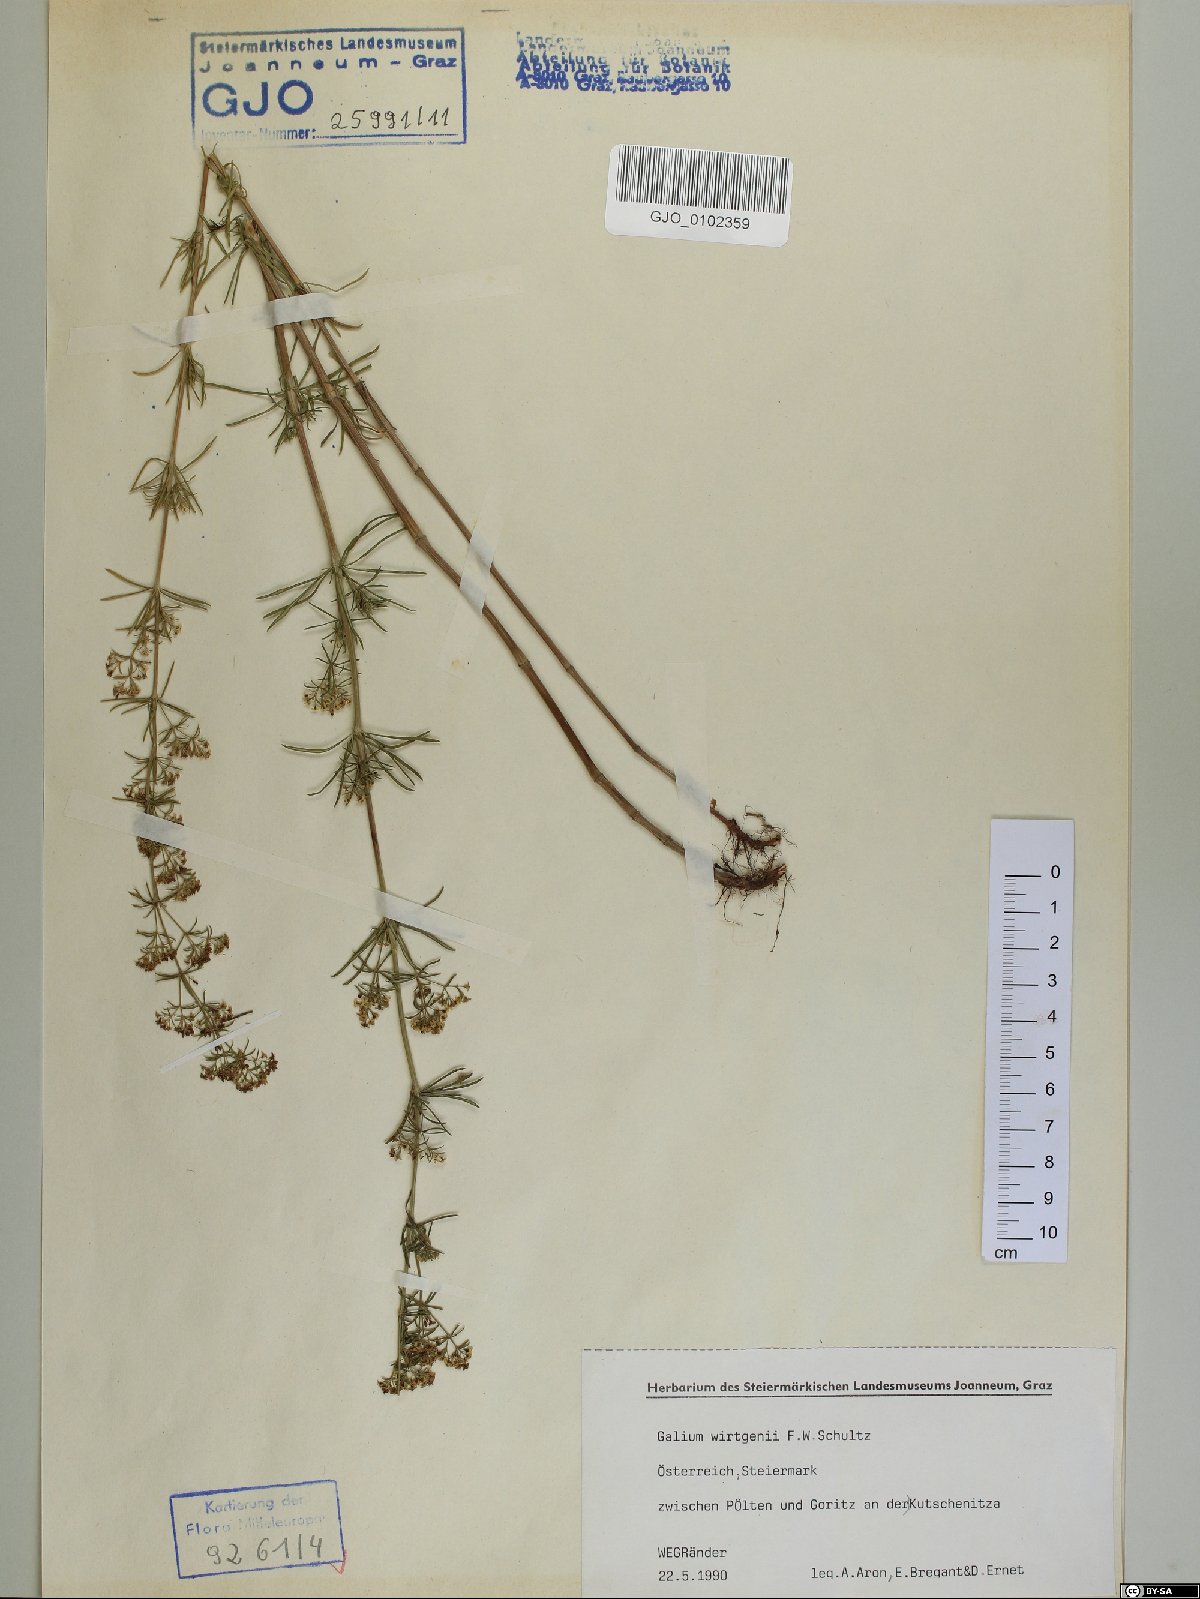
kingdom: Plantae
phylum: Tracheophyta
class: Magnoliopsida
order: Gentianales
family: Rubiaceae
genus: Galium
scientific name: Galium verum
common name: Lady's bedstraw
